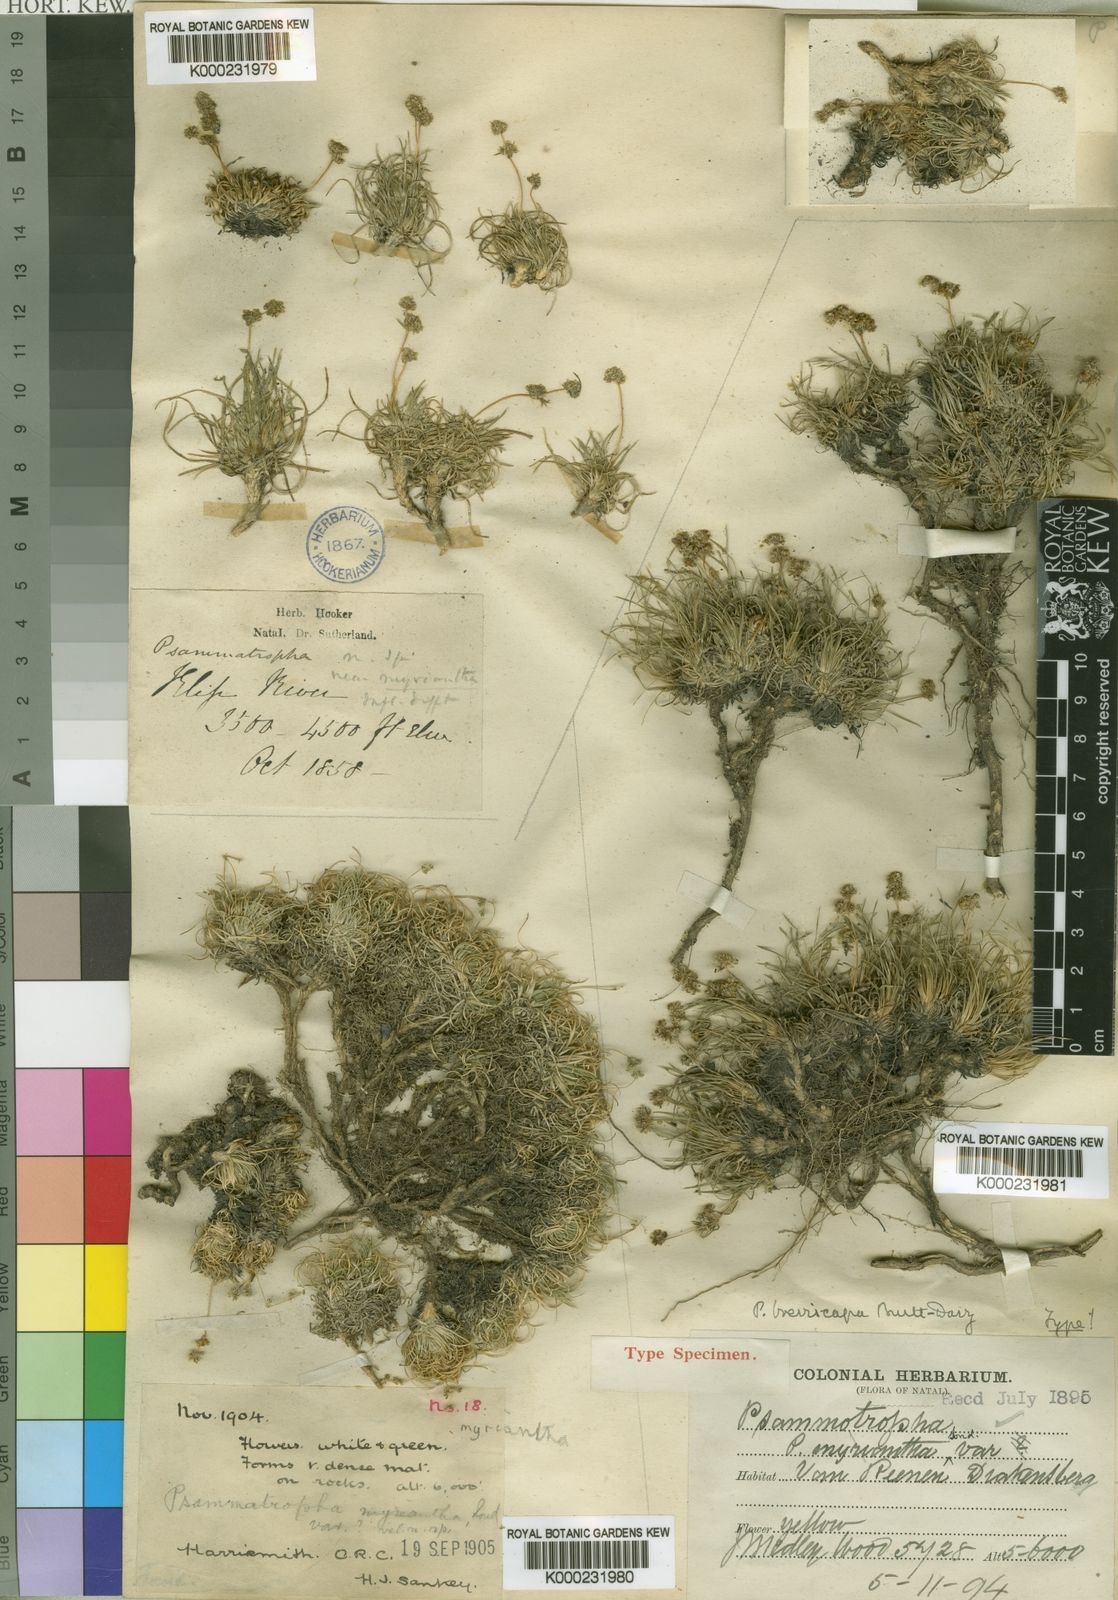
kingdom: Plantae
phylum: Tracheophyta
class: Magnoliopsida
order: Caryophyllales
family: Molluginaceae
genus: Psammotropha
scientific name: Psammotropha myriantha
